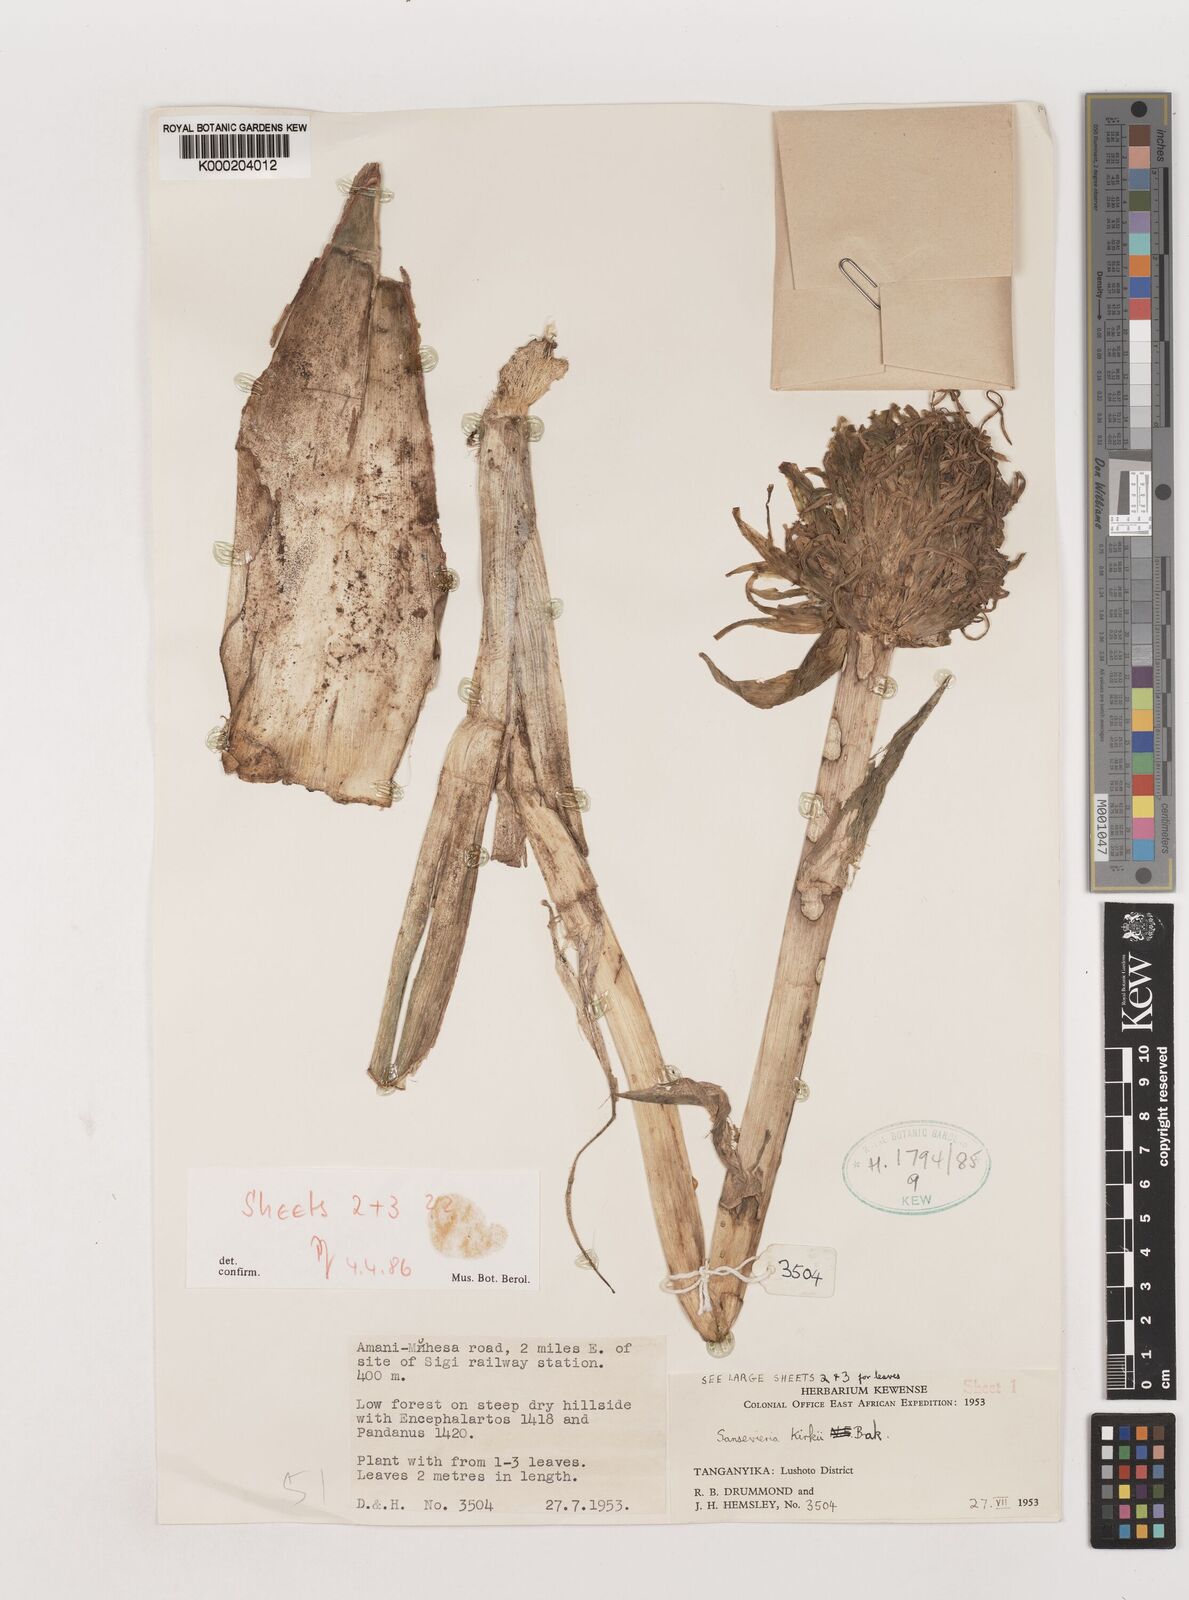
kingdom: Plantae
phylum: Tracheophyta
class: Liliopsida
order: Asparagales
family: Asparagaceae
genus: Dracaena
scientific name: Dracaena pethera
